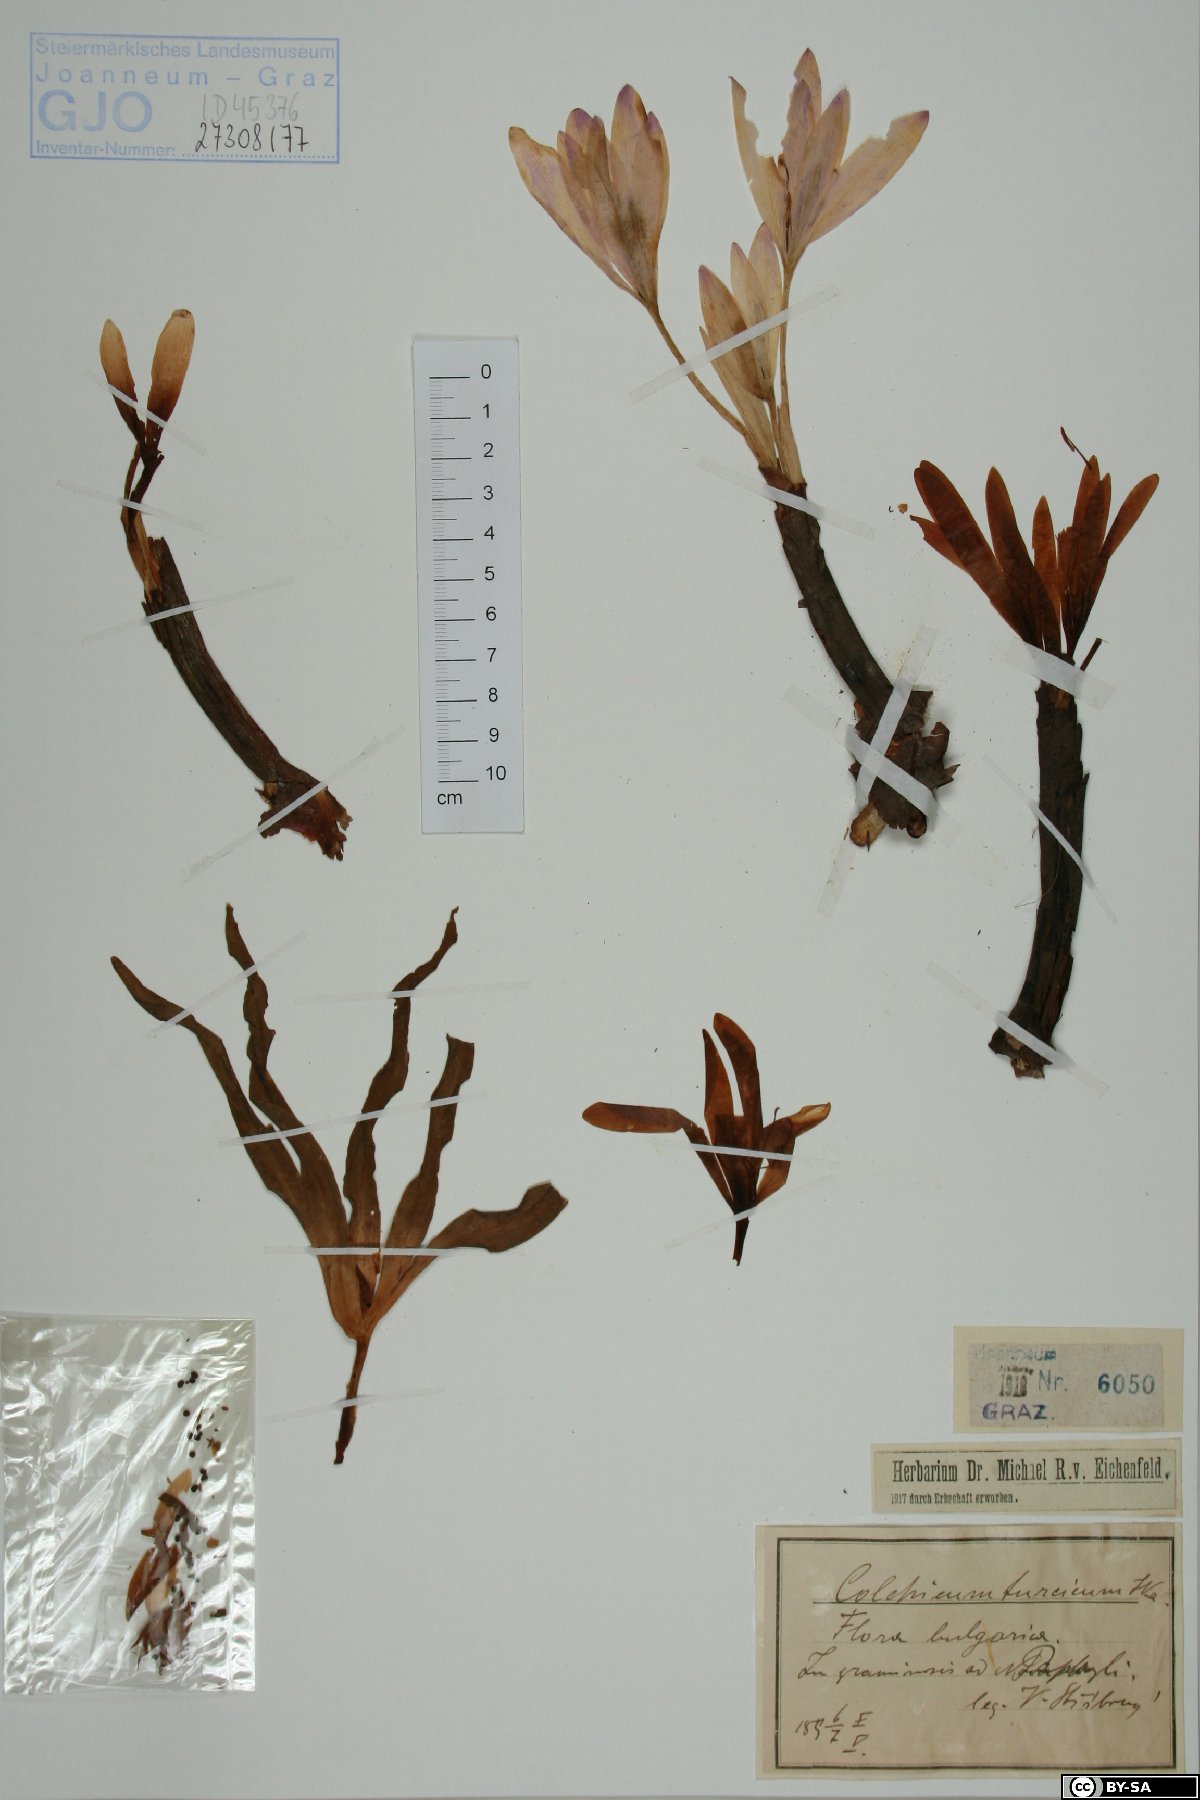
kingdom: Plantae
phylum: Tracheophyta
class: Liliopsida
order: Liliales
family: Colchicaceae
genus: Colchicum
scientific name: Colchicum turcicum
